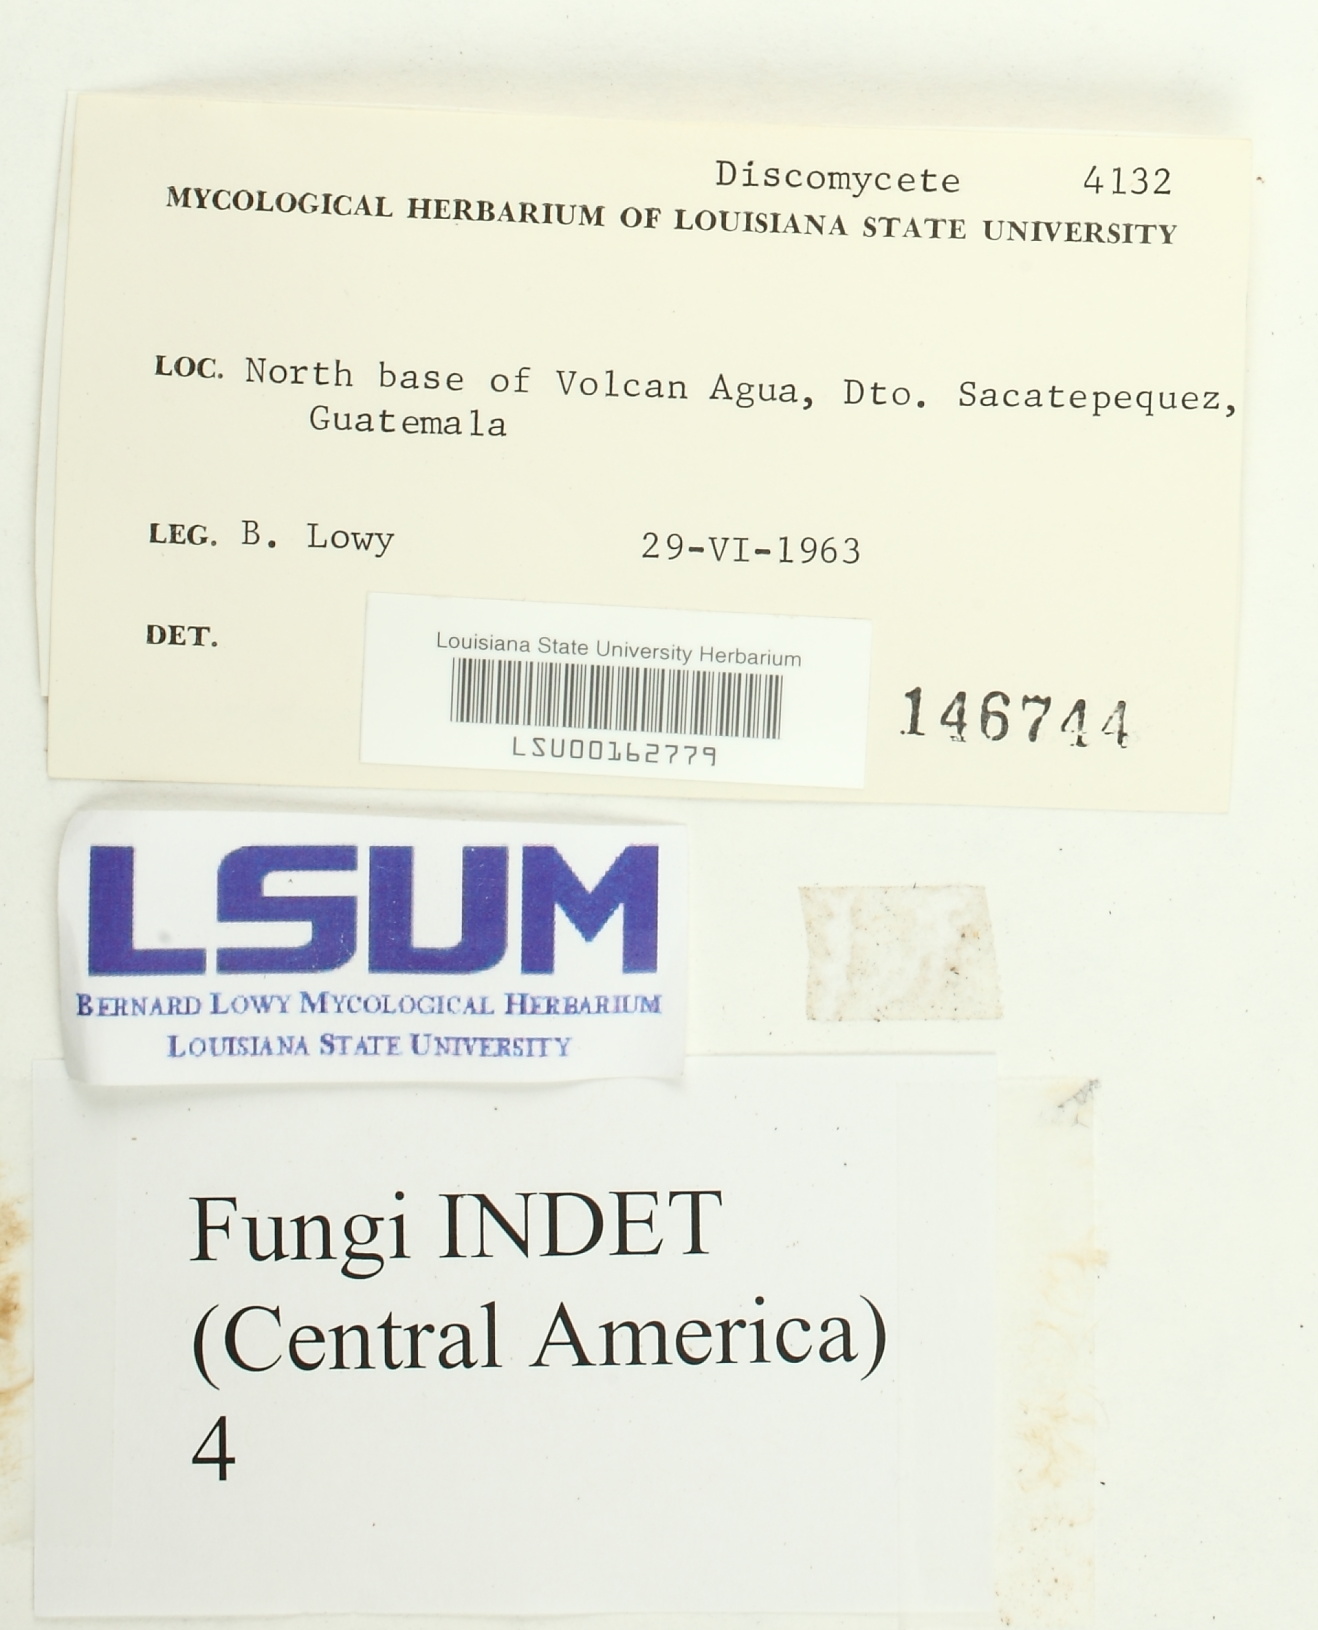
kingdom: Fungi
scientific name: Fungi
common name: Fungi
